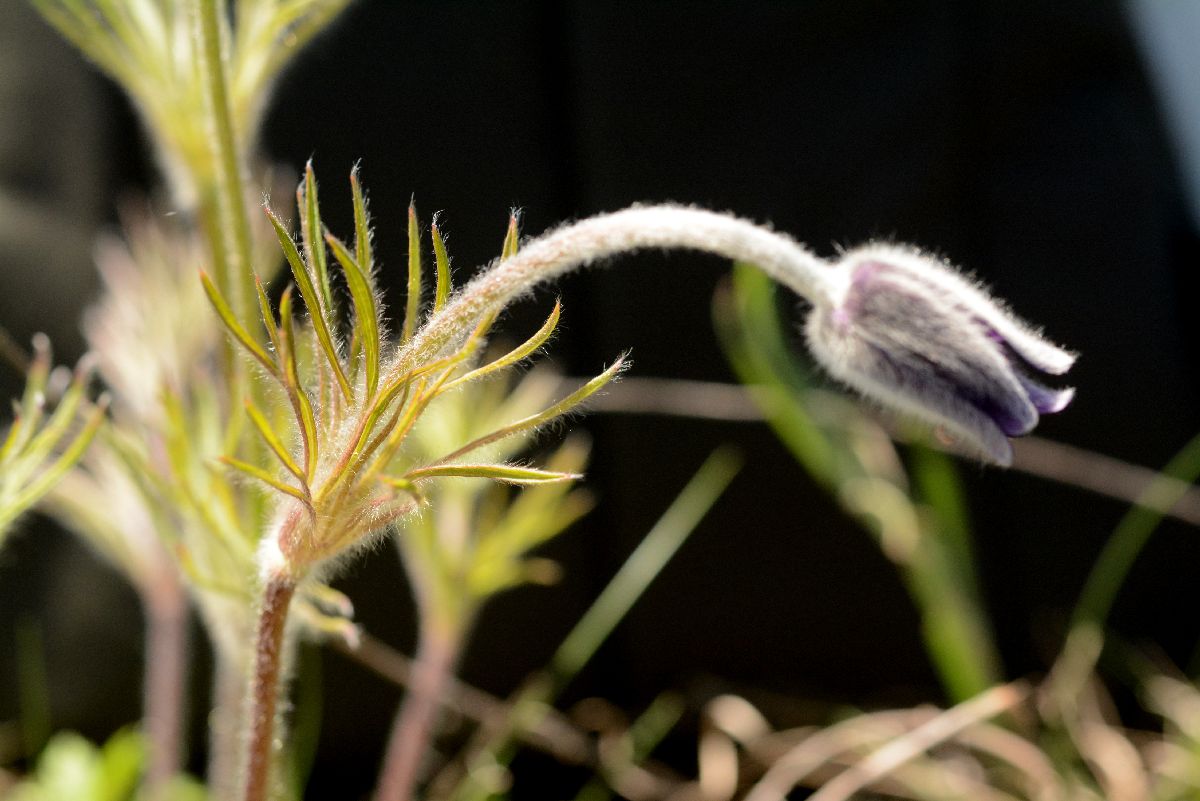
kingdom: Plantae
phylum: Tracheophyta
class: Magnoliopsida
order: Ranunculales
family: Ranunculaceae
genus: Pulsatilla
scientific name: Pulsatilla pratensis
